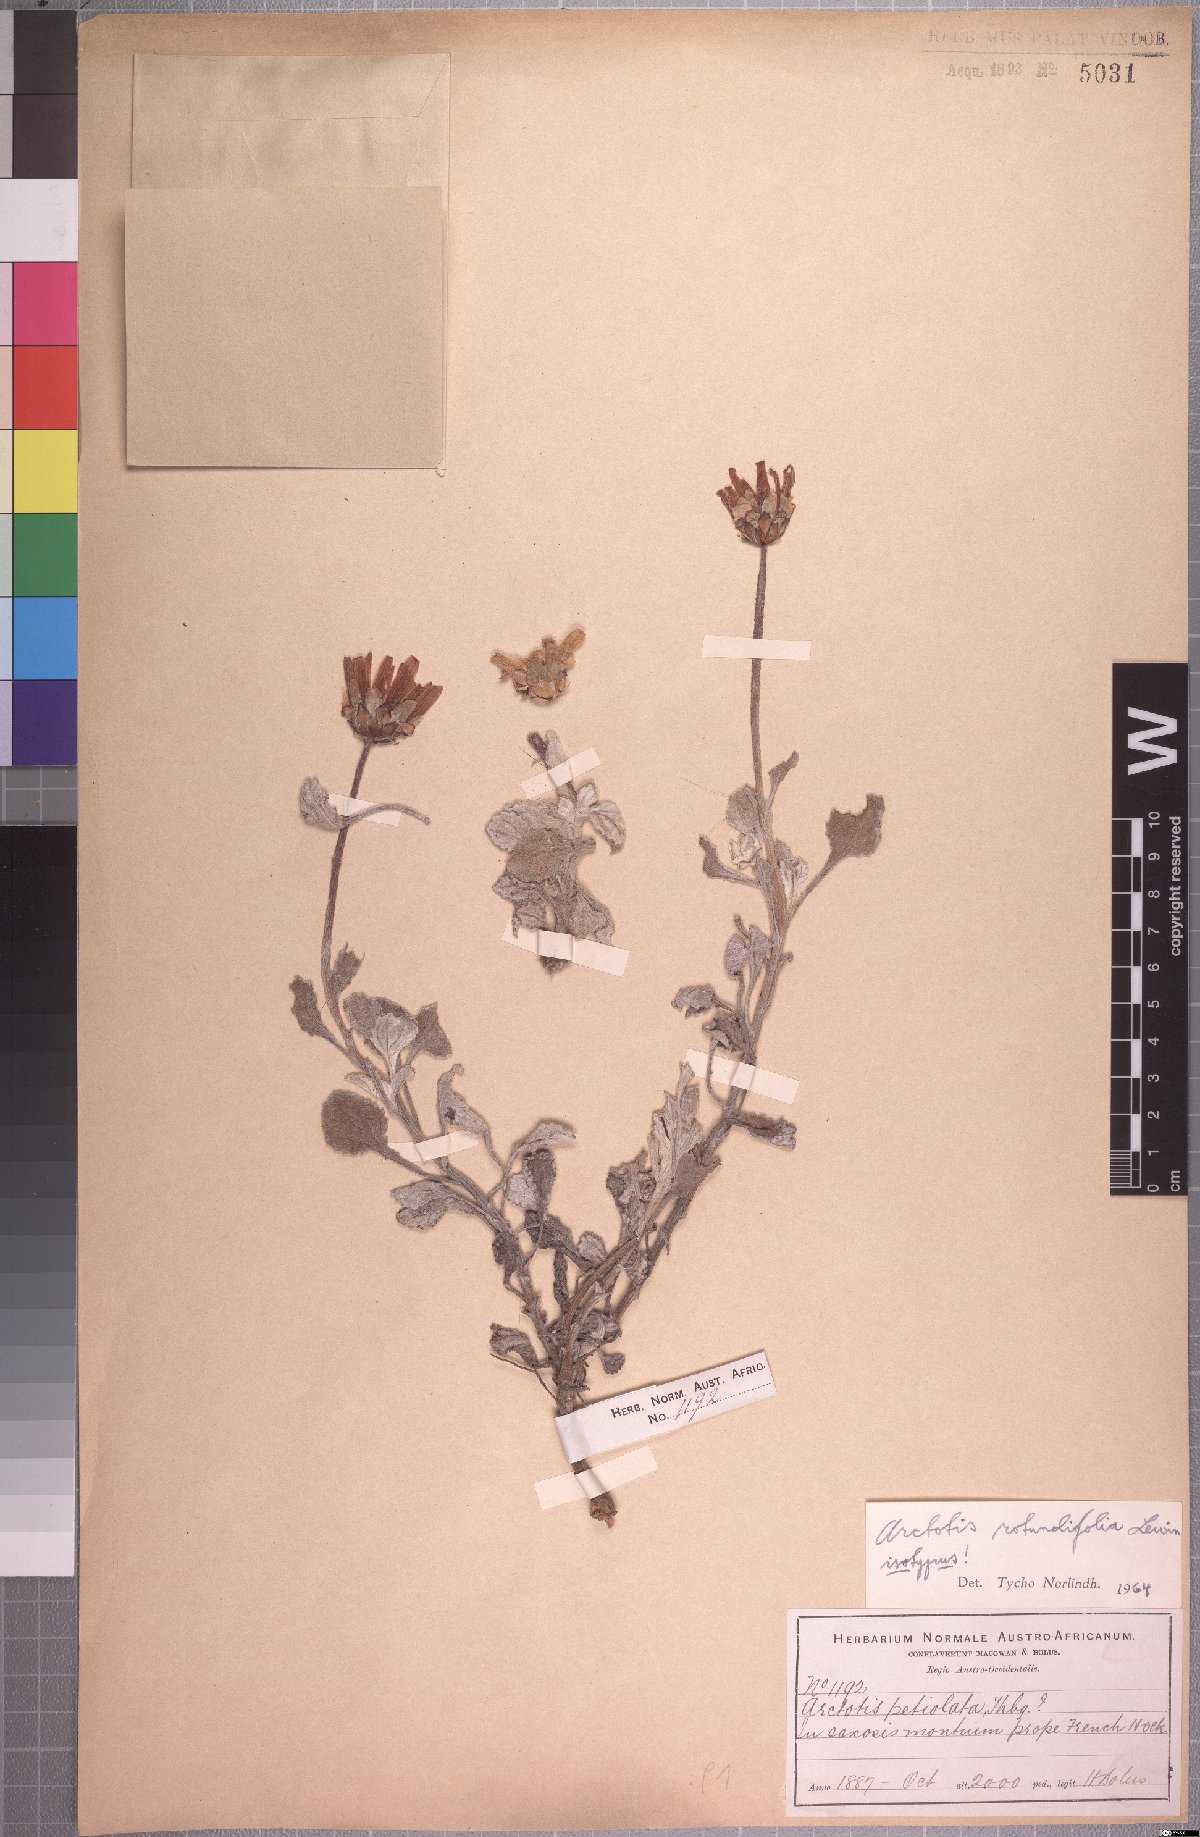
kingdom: Plantae
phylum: Tracheophyta
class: Magnoliopsida
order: Asterales
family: Asteraceae
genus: Arctotis
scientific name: Arctotis rotundifolia
